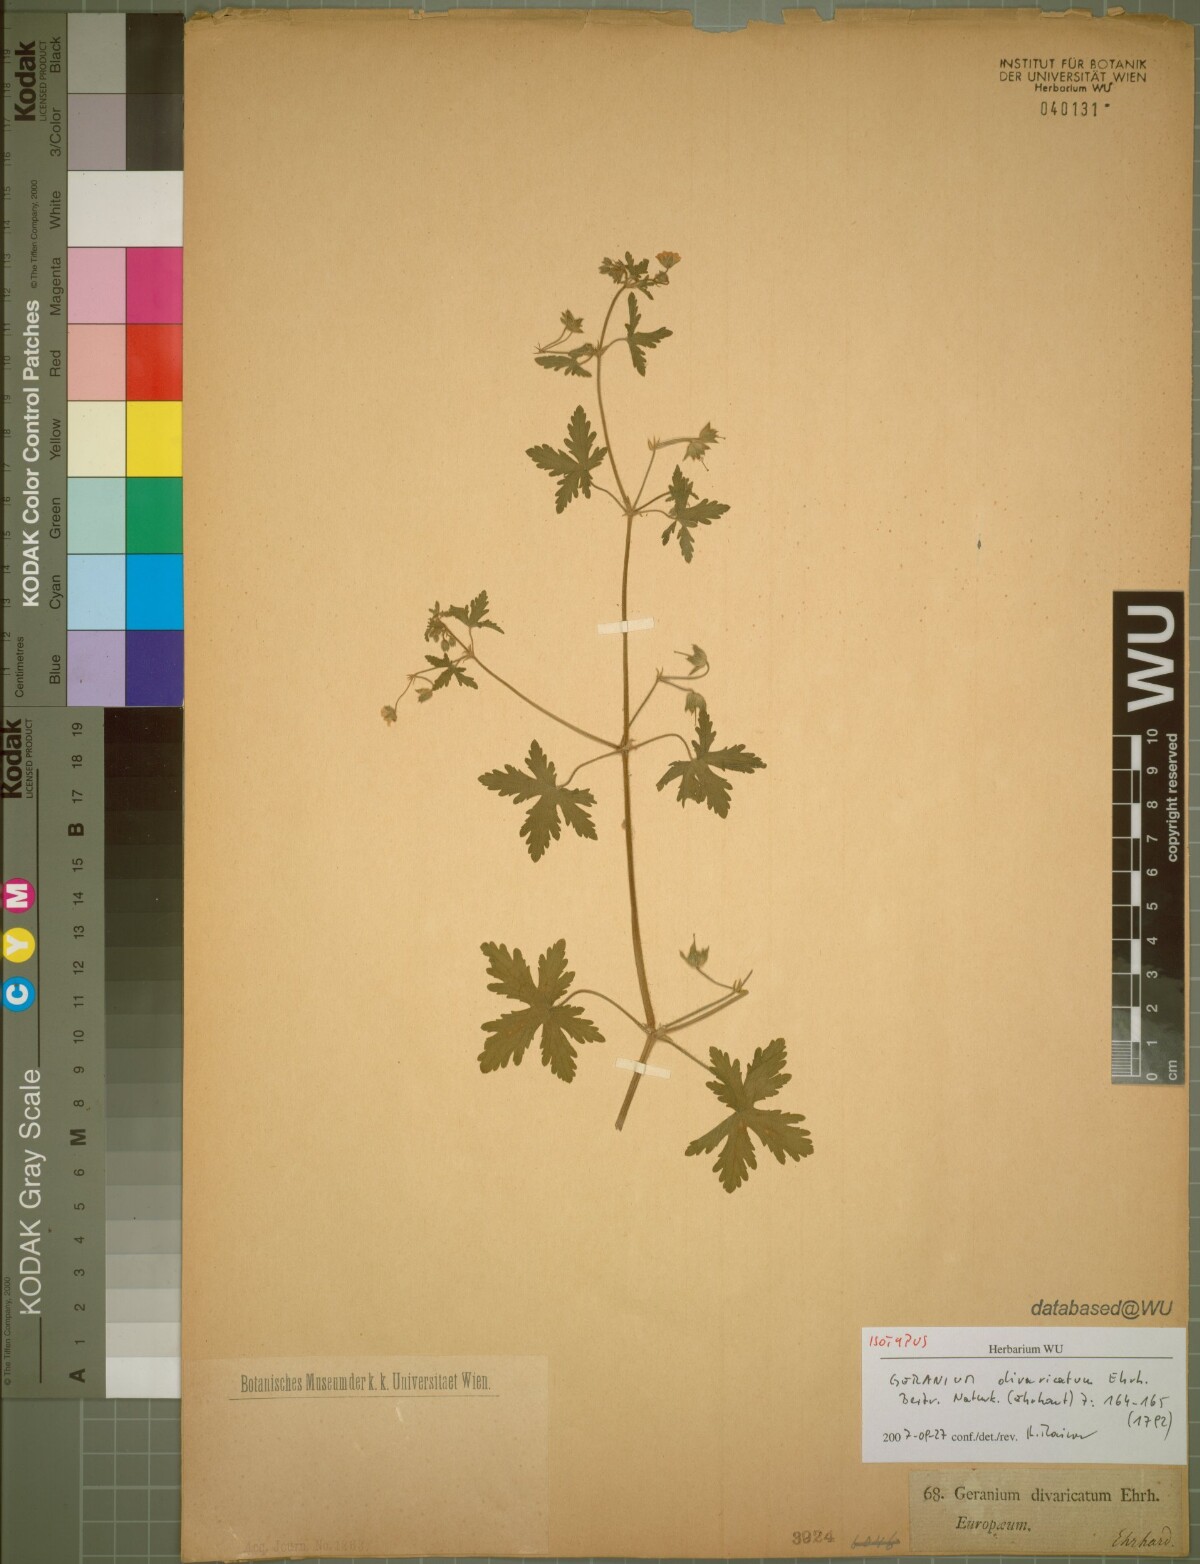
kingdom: Plantae
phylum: Tracheophyta
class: Magnoliopsida
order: Geraniales
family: Geraniaceae
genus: Geranium
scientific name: Geranium divaricatum
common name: Spreading crane's-bill
